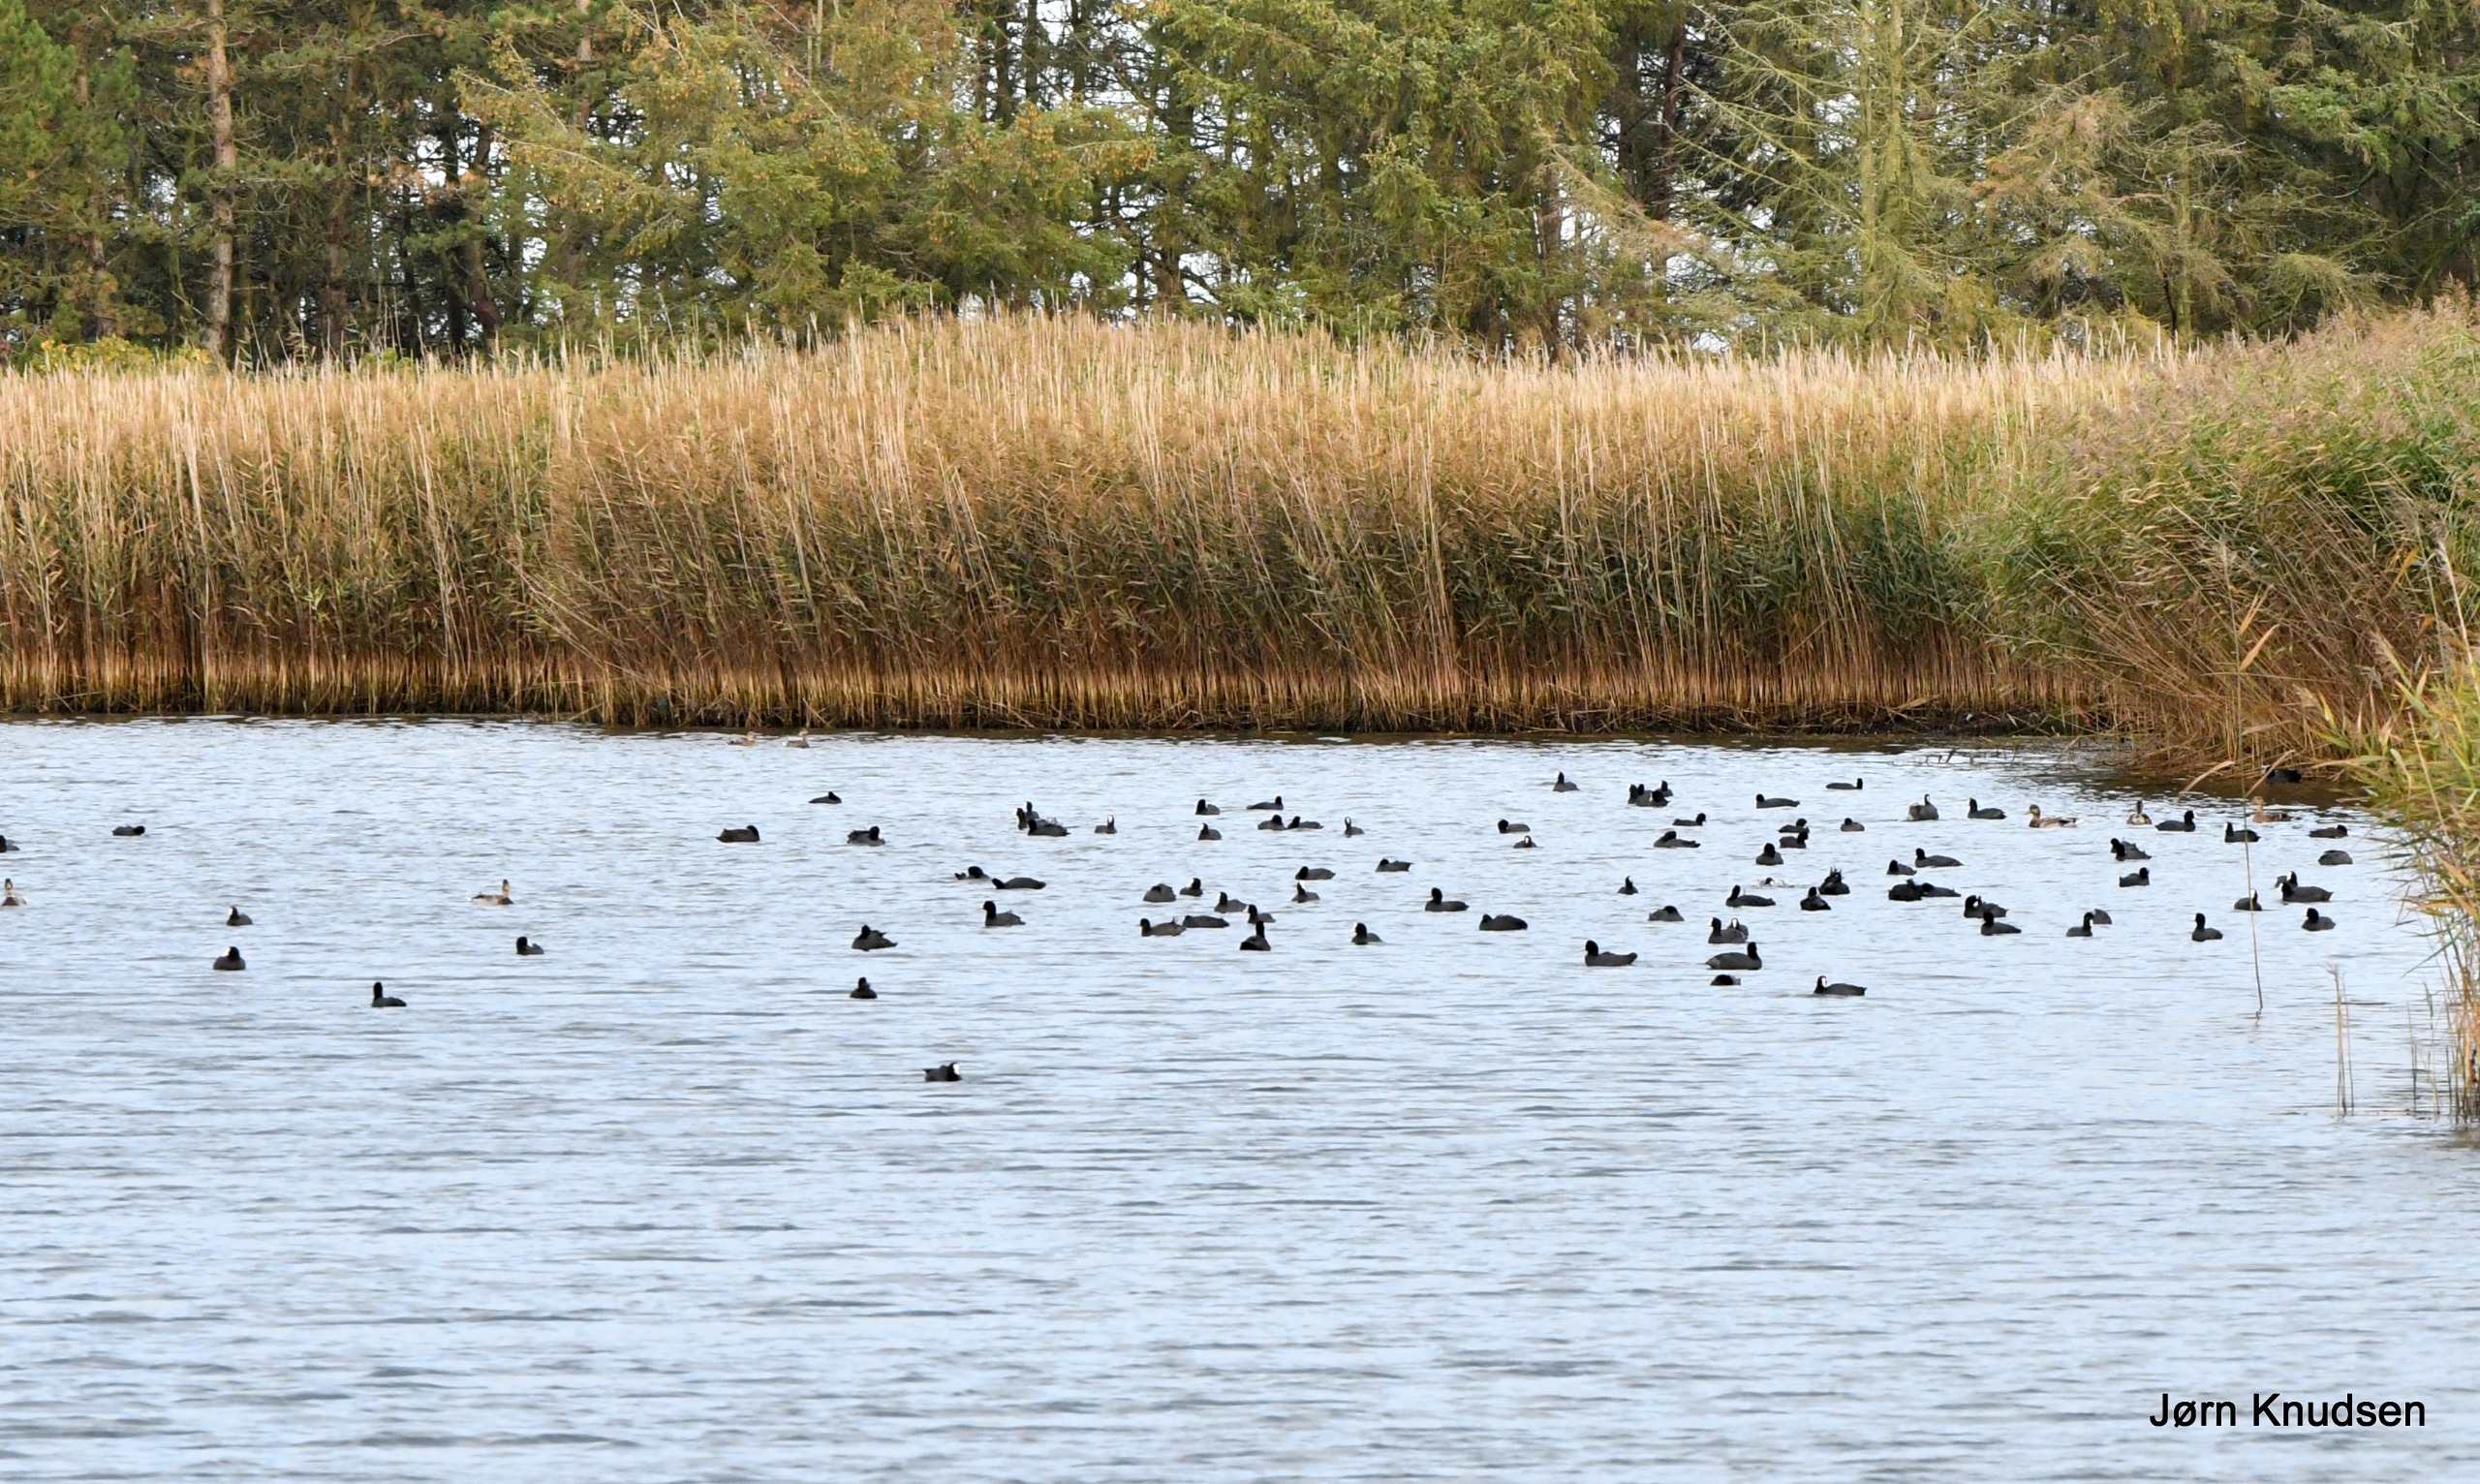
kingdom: Animalia
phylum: Chordata
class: Aves
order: Gruiformes
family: Rallidae
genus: Fulica
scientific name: Fulica atra
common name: Blishøne
